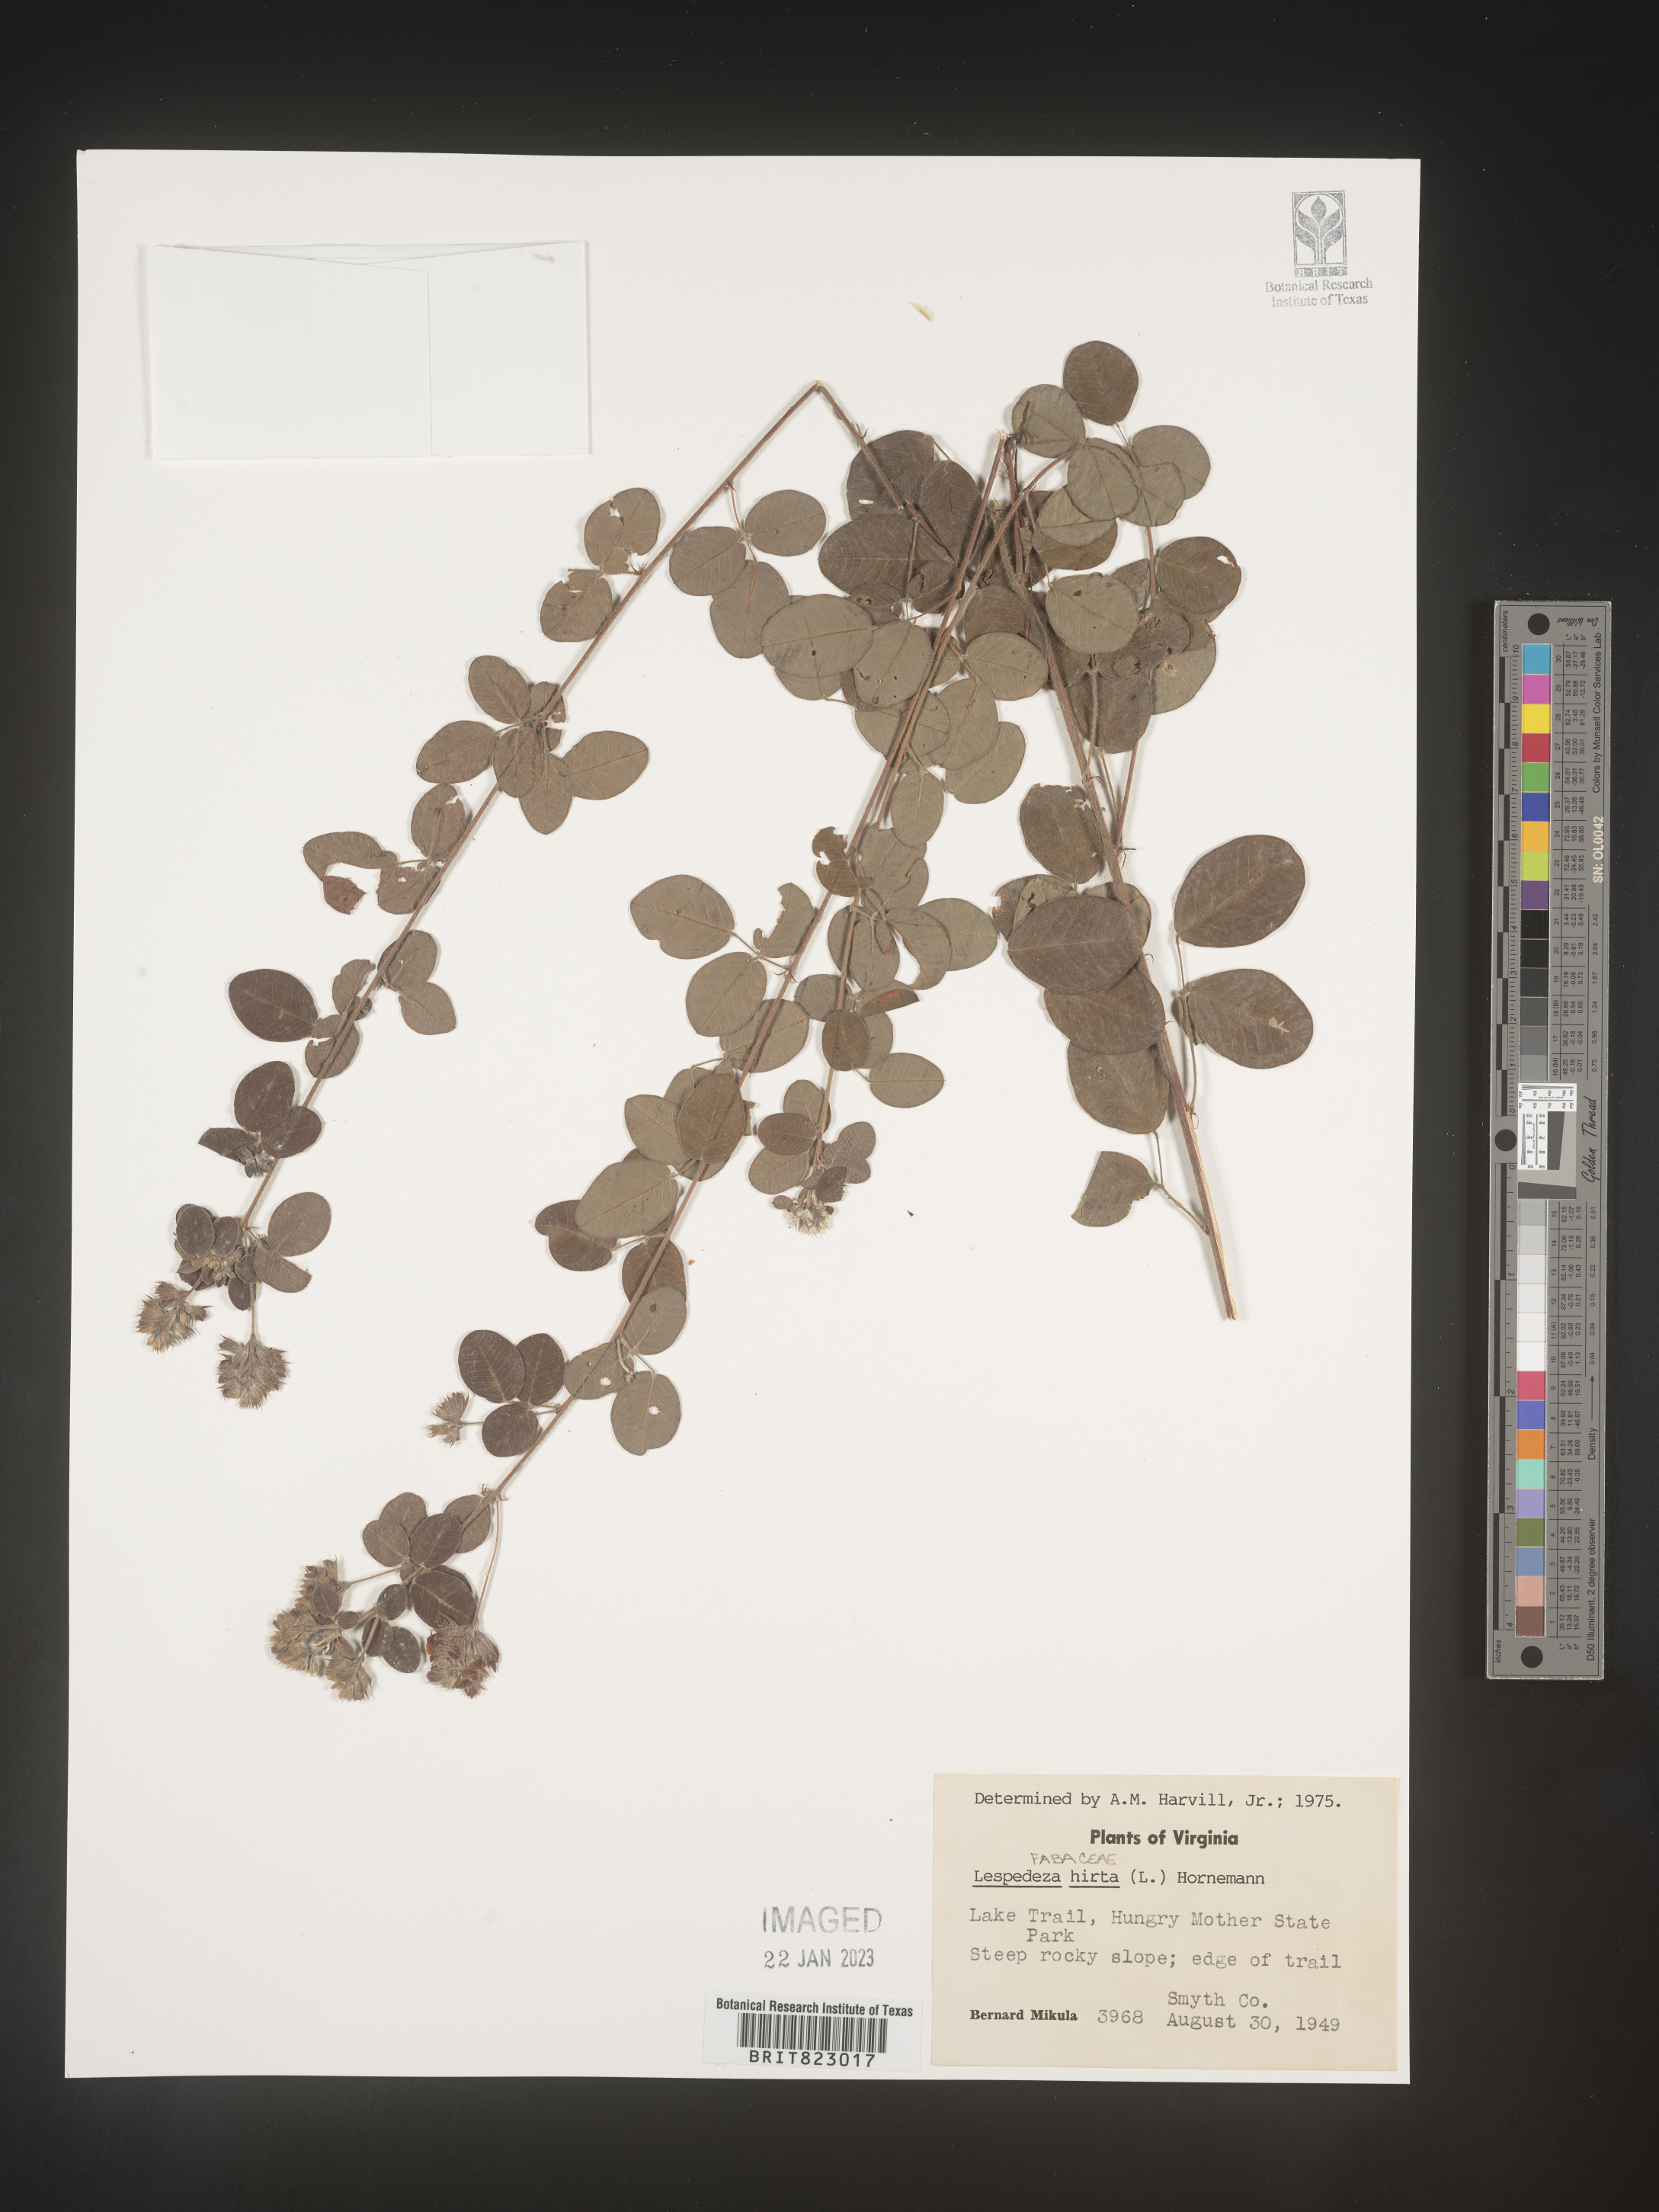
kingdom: Plantae
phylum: Tracheophyta
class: Magnoliopsida
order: Fabales
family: Fabaceae
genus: Lespedeza
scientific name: Lespedeza hirta
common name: Hairy lespedeza
